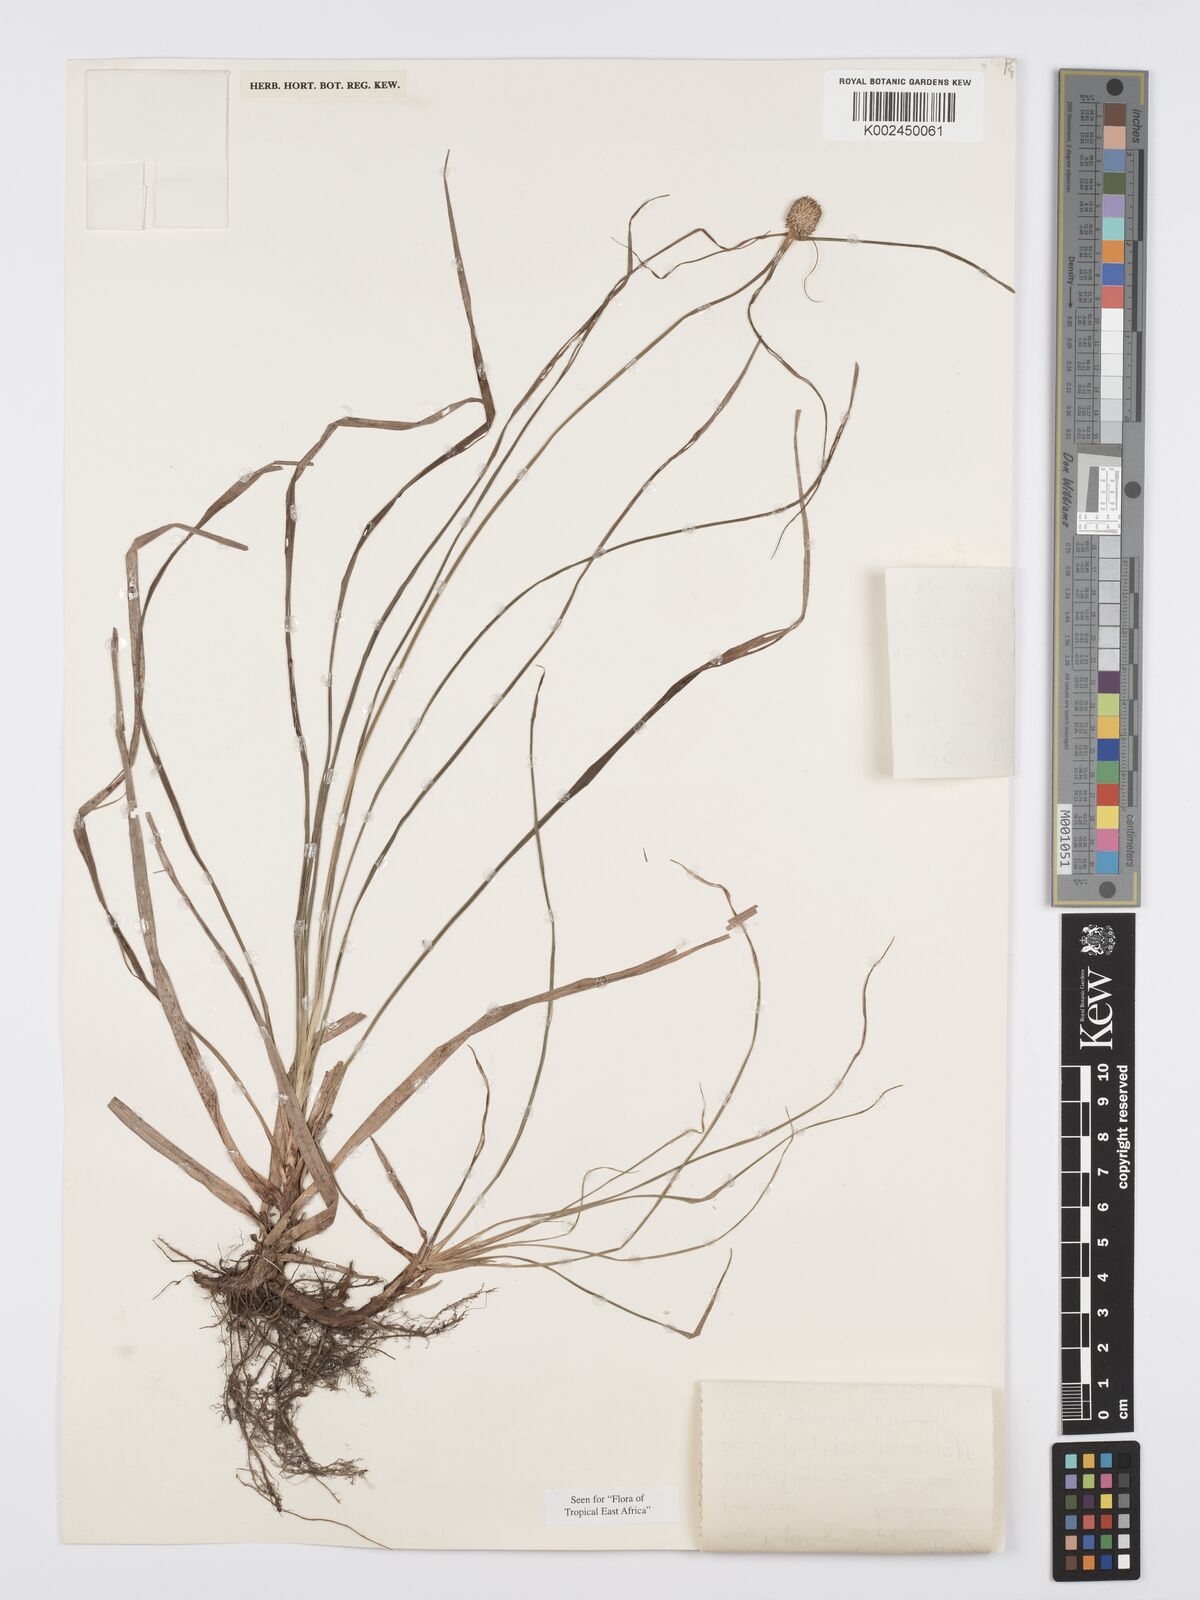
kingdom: Plantae
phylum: Tracheophyta
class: Liliopsida
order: Poales
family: Cyperaceae
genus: Cyperus
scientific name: Cyperus cartilagineus
